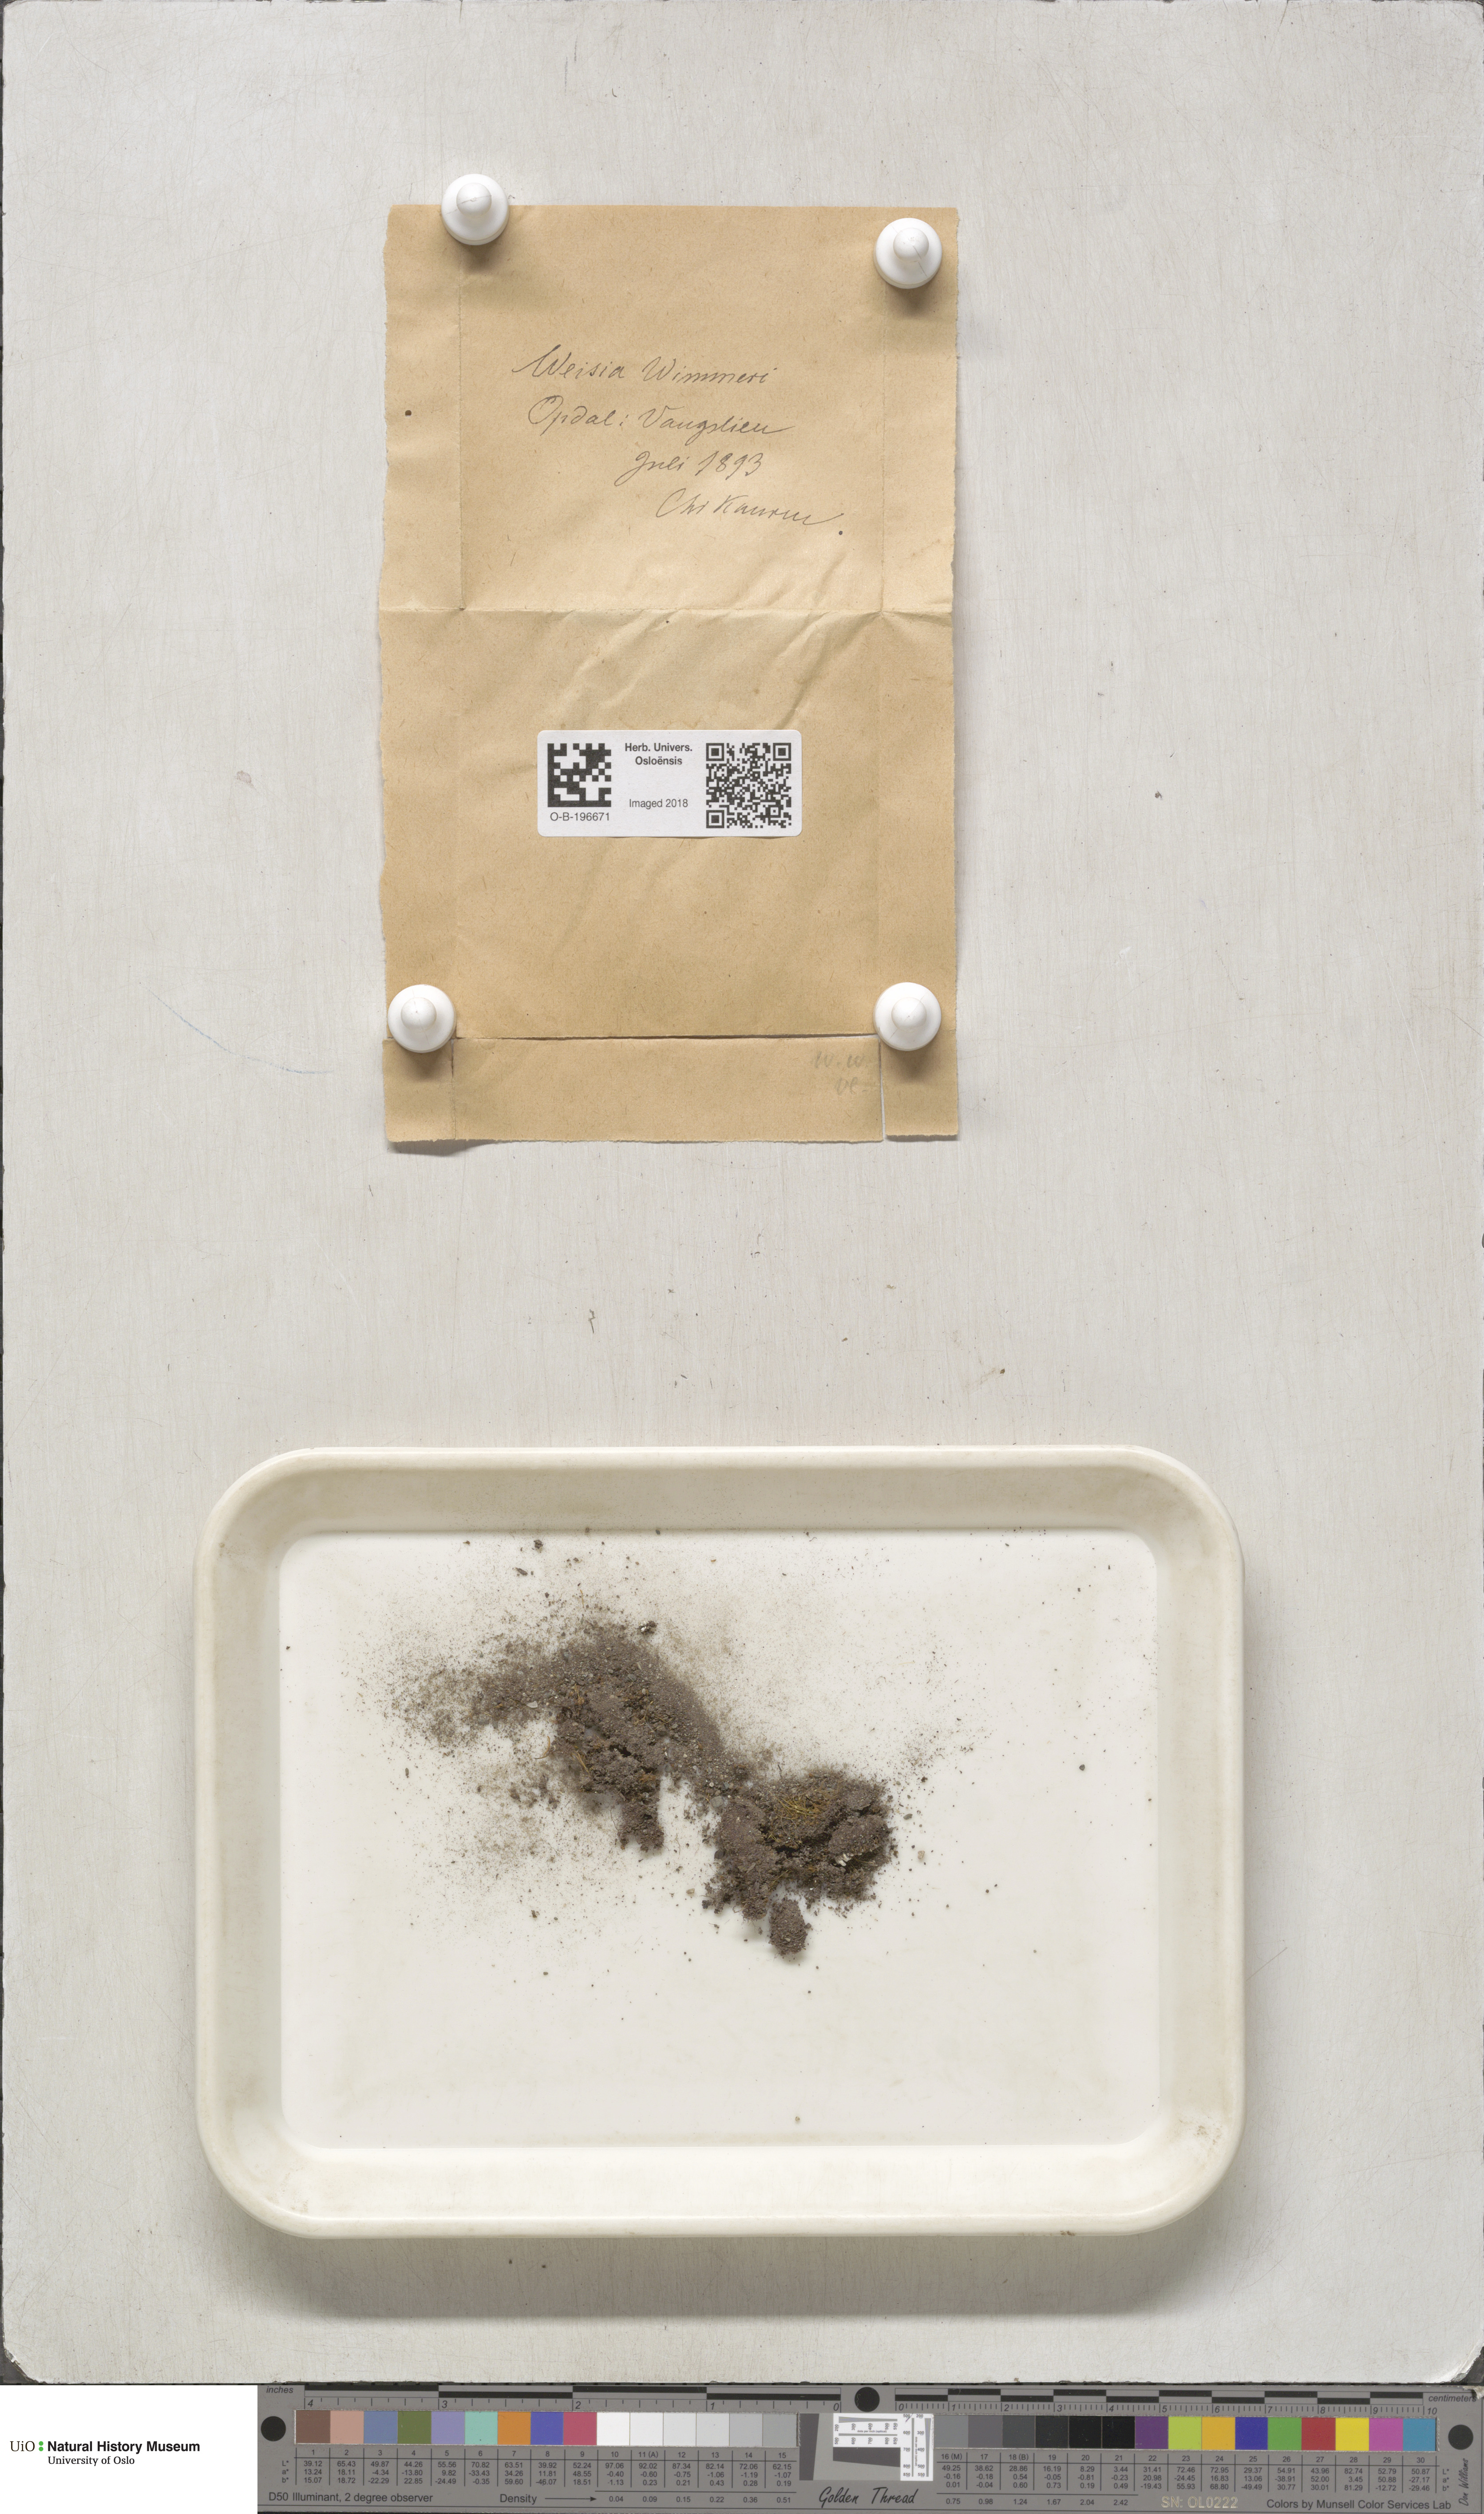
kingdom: Plantae
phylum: Bryophyta
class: Bryopsida
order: Pottiales
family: Pottiaceae
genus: Weissia
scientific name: Weissia wimmeriana
